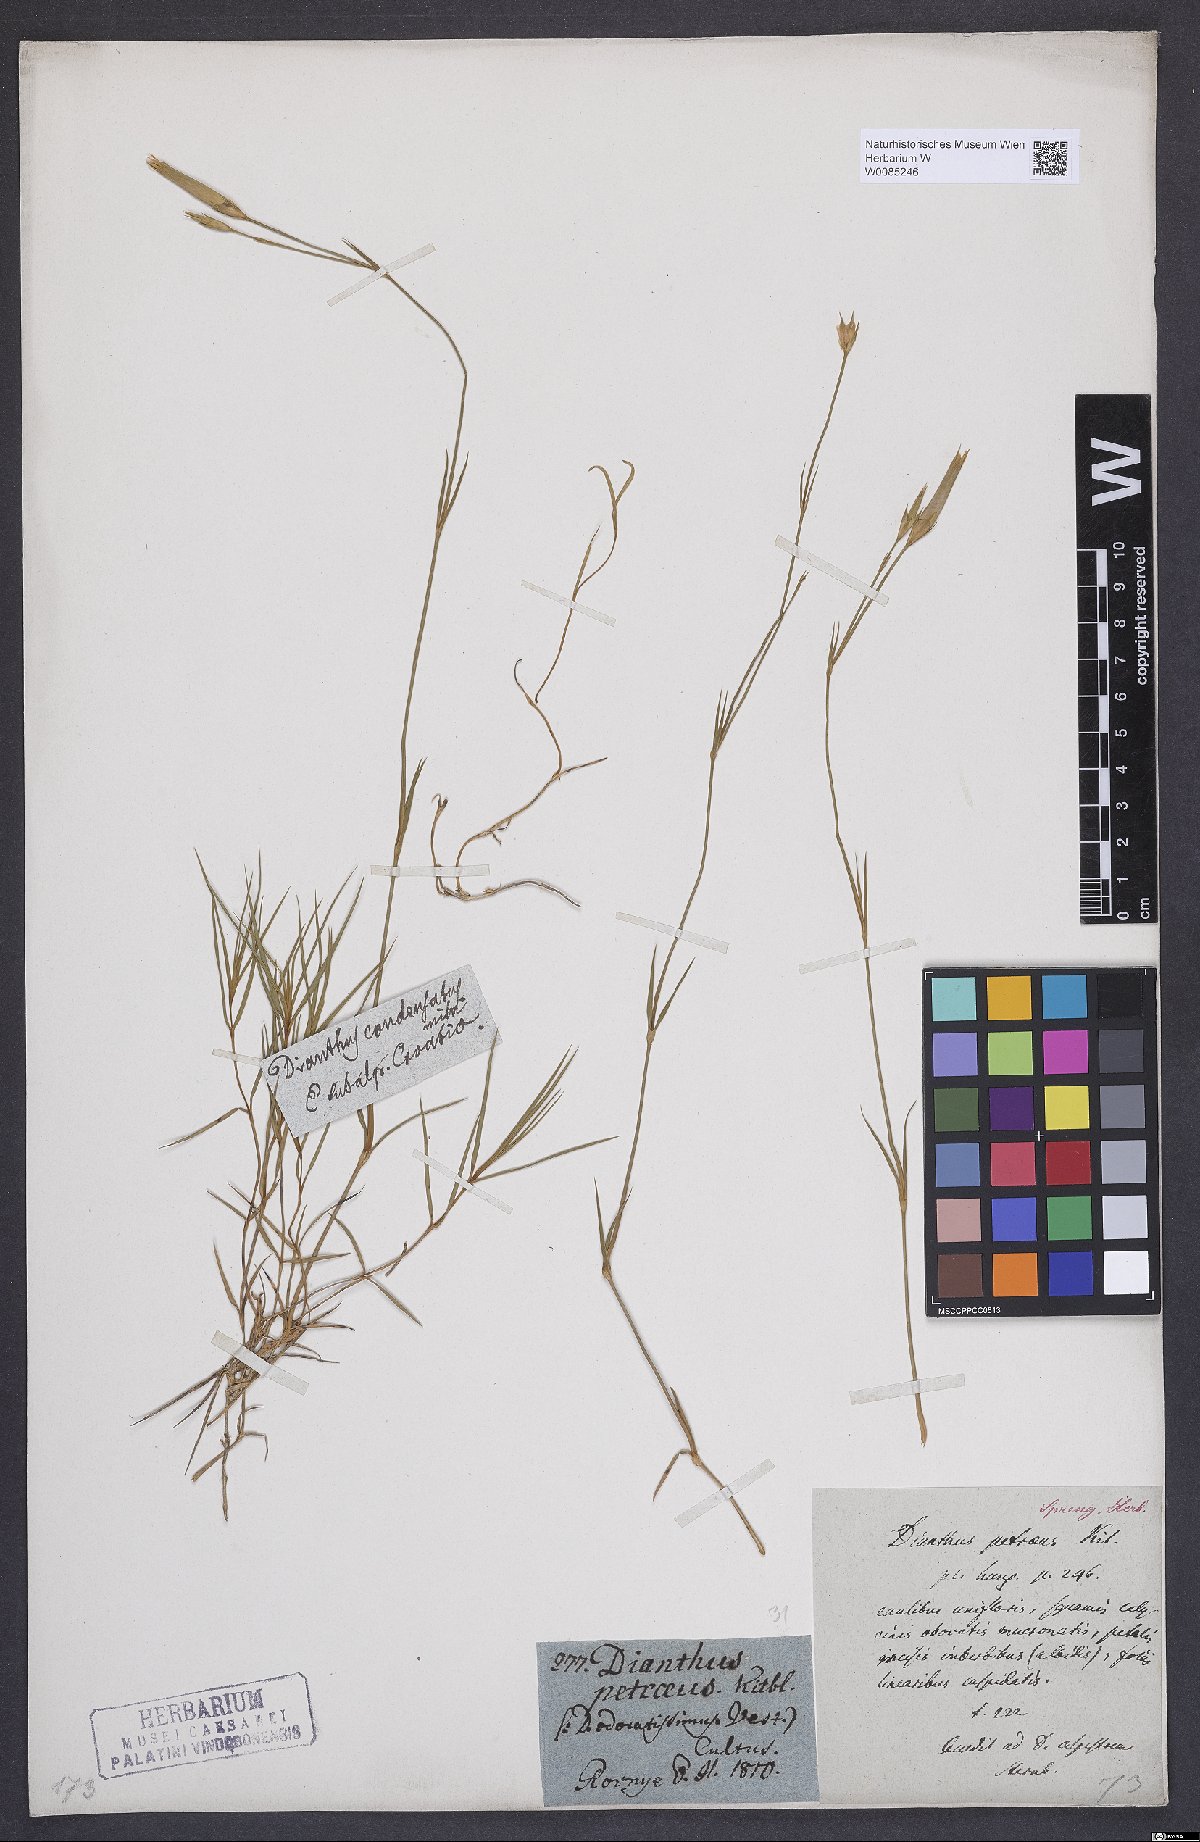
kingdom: Plantae
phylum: Tracheophyta
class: Magnoliopsida
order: Caryophyllales
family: Caryophyllaceae
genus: Dianthus
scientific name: Dianthus petraeus
